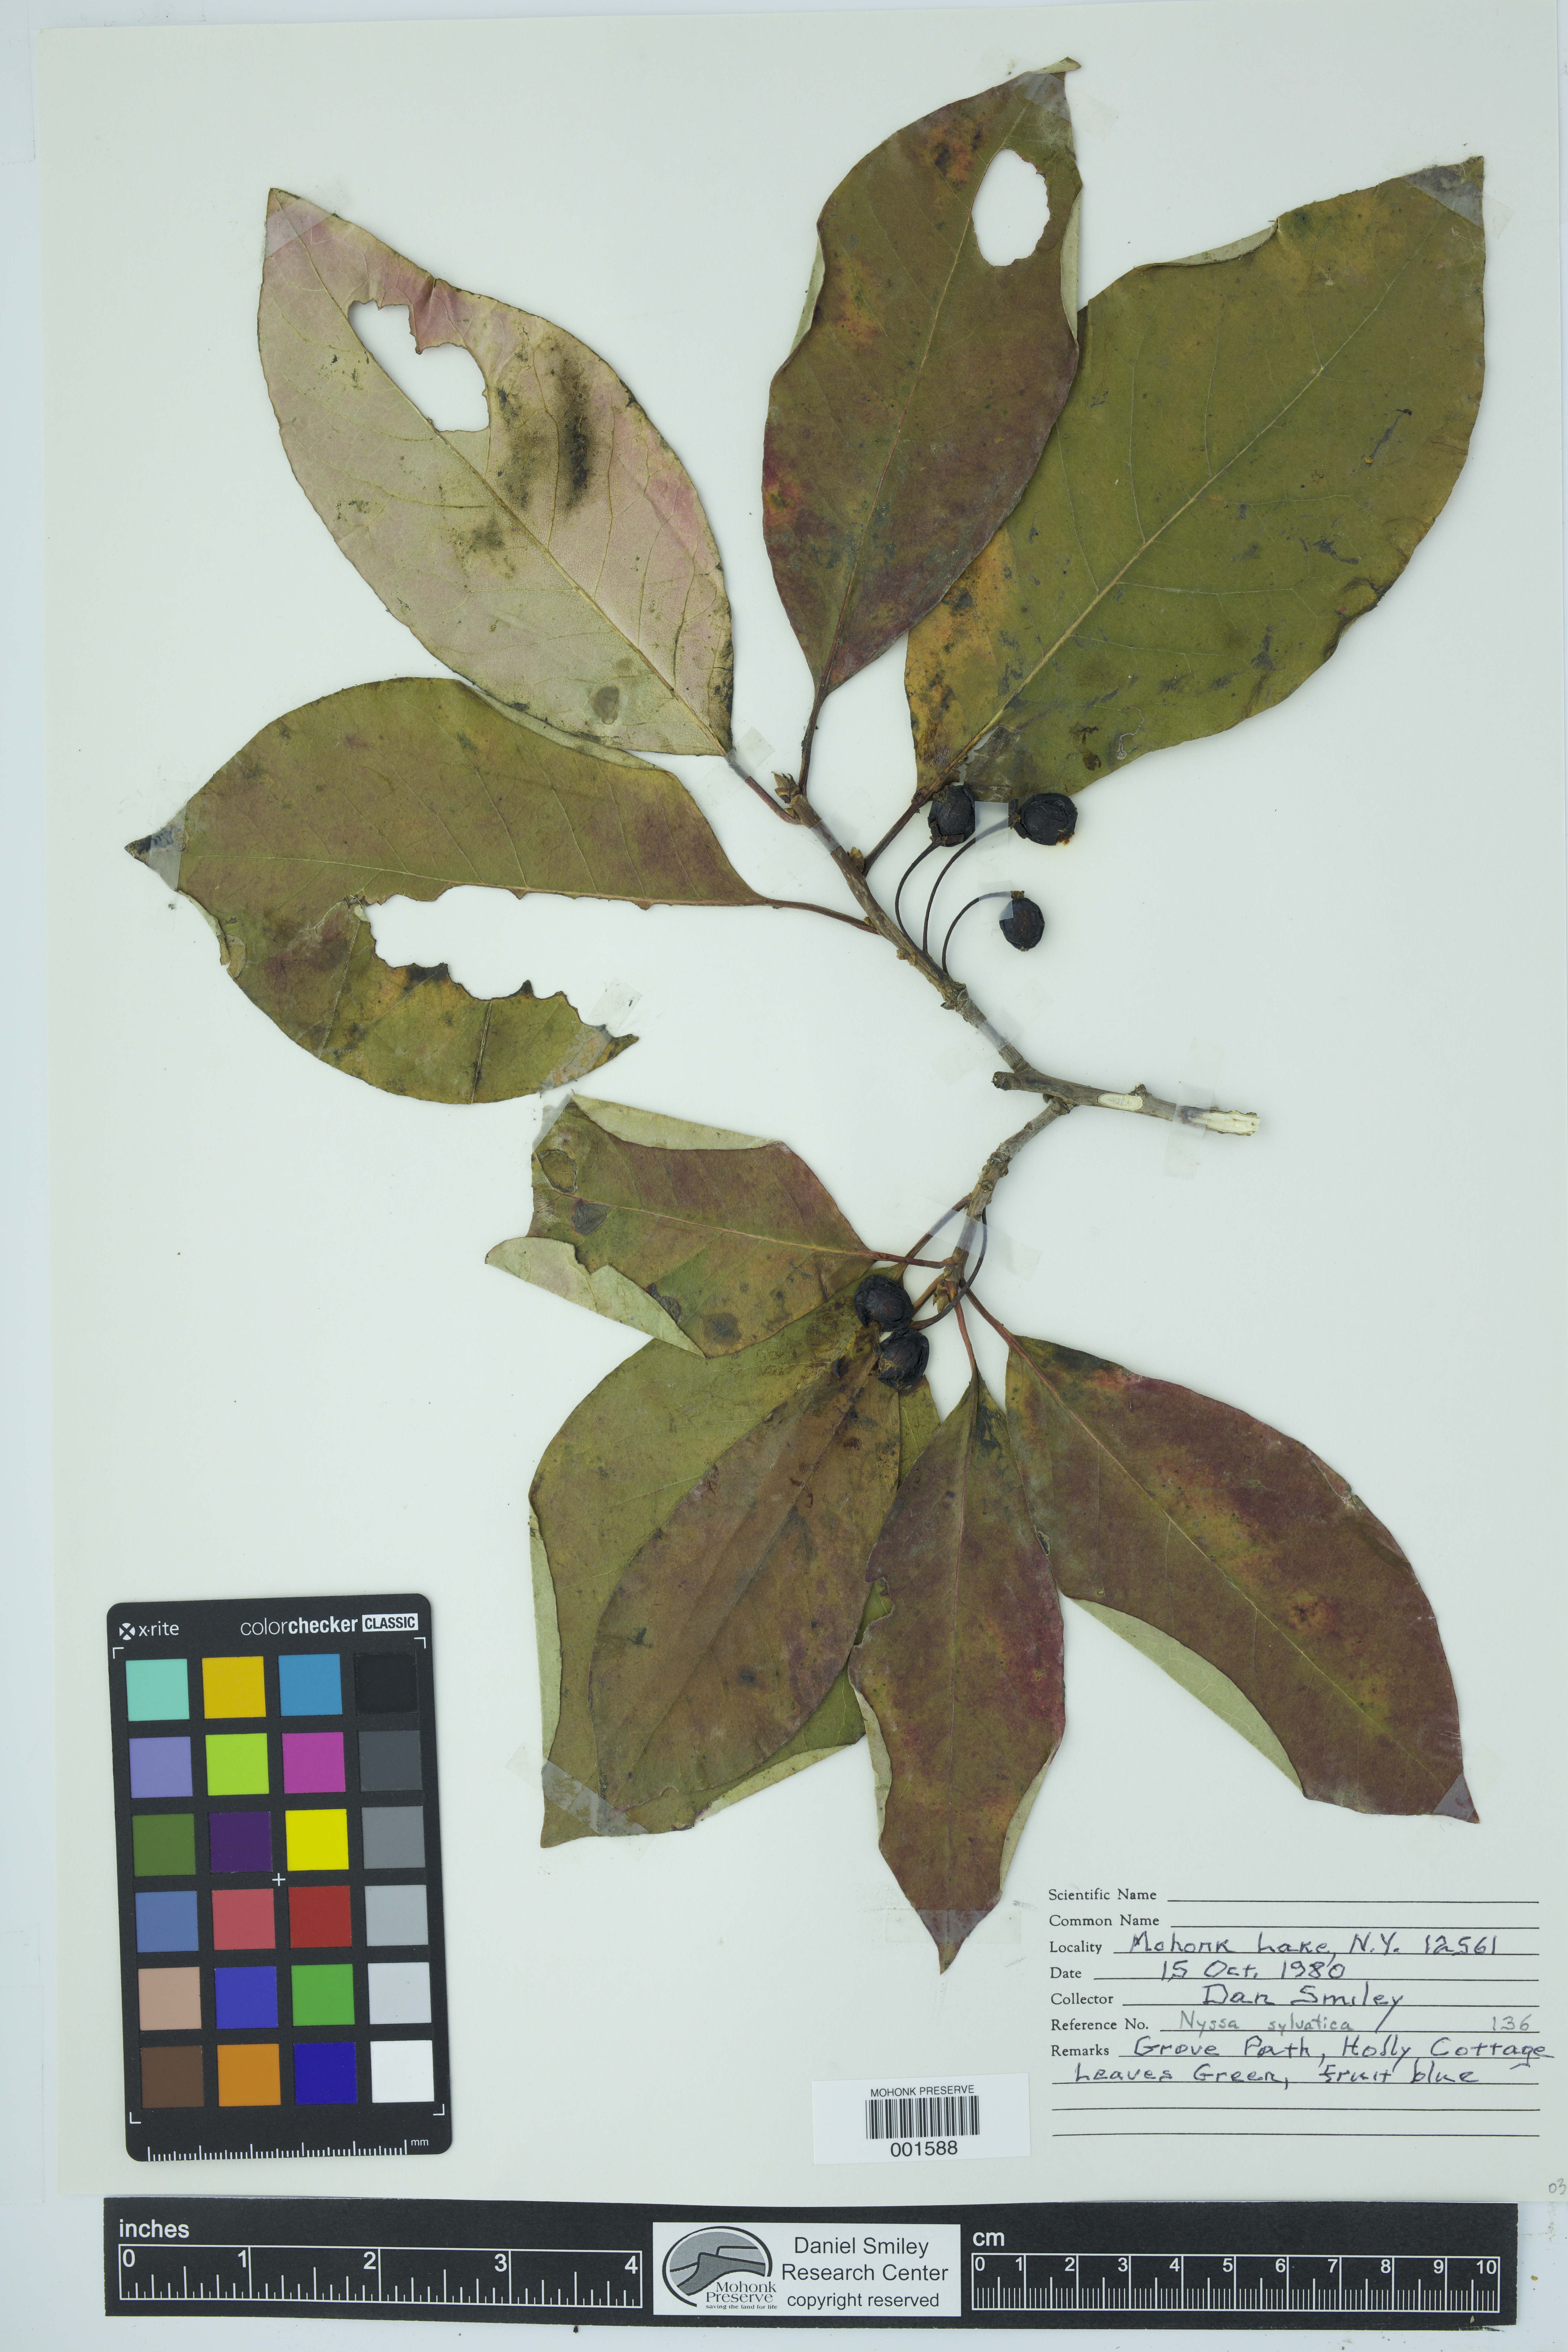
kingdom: Plantae
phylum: Tracheophyta
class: Magnoliopsida
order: Cornales
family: Nyssaceae
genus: Nyssa
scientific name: Nyssa sylvatica
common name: Black tupelo
